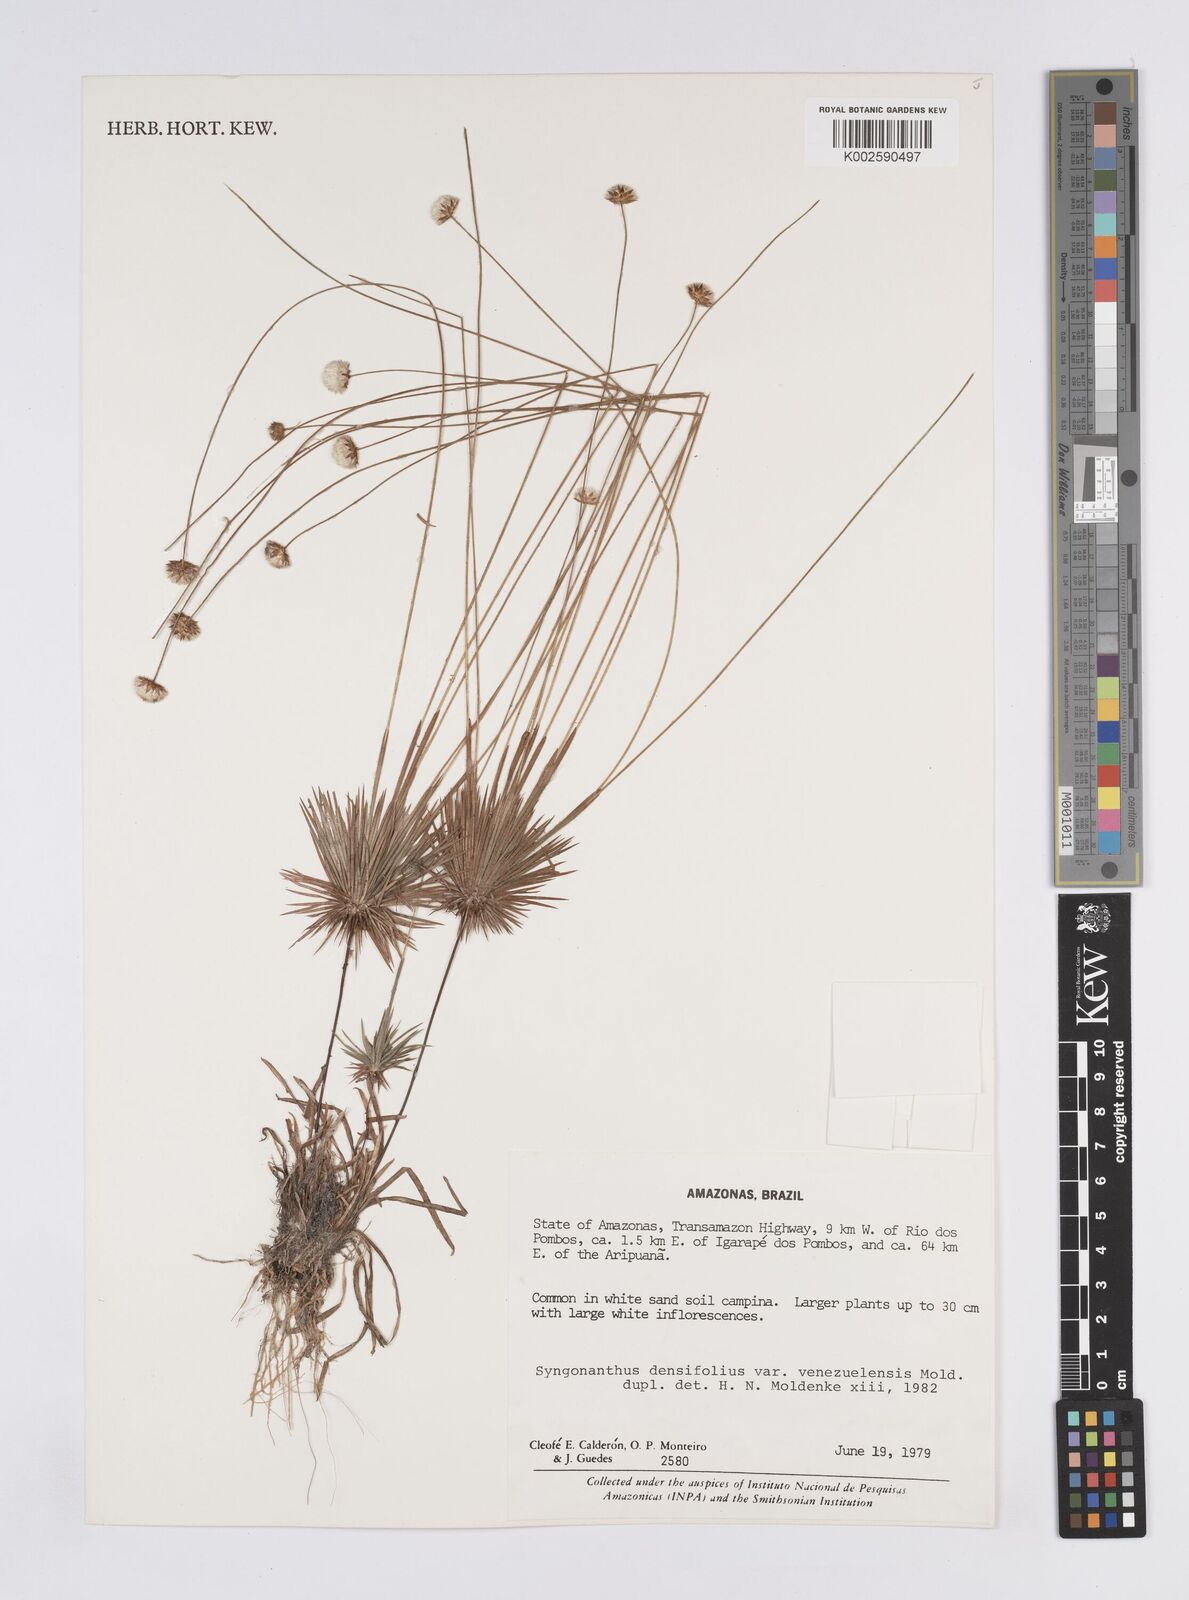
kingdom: Plantae
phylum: Tracheophyta
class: Liliopsida
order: Poales
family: Eriocaulaceae
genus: Syngonanthus
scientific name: Syngonanthus ottohuberi
